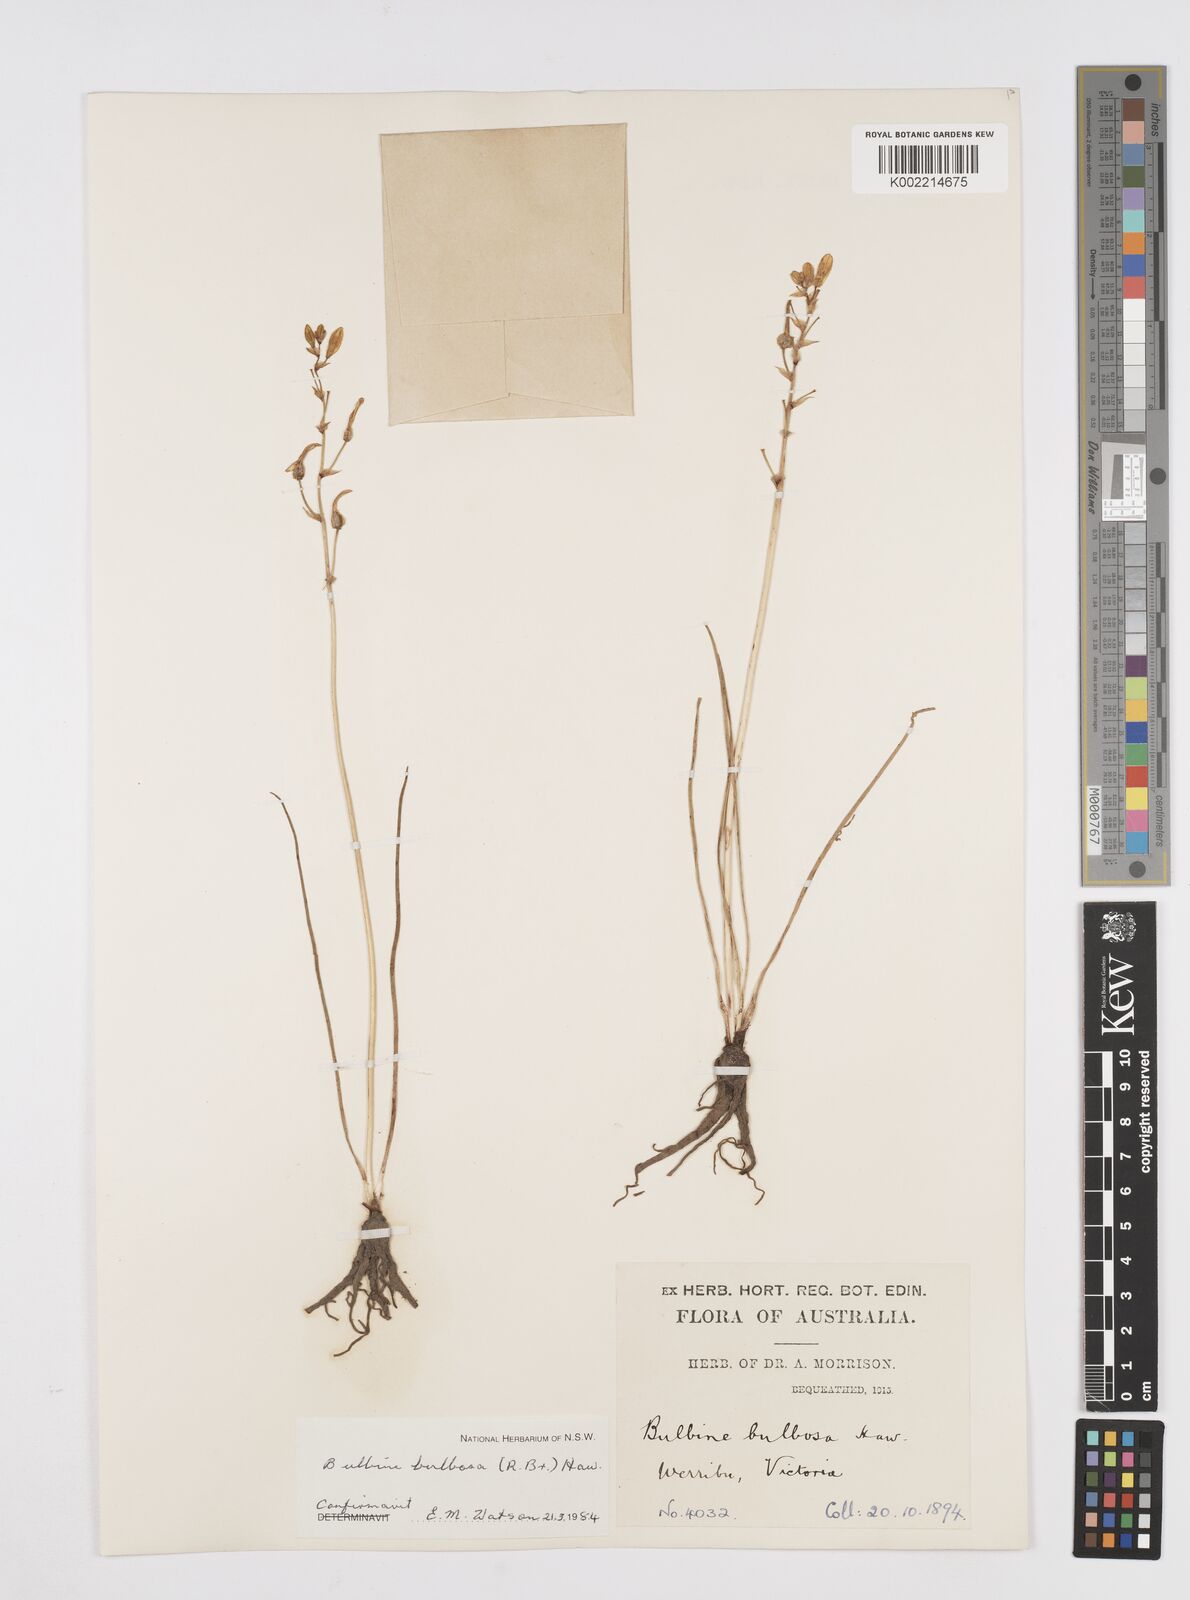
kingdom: Plantae
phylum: Tracheophyta
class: Liliopsida
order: Asparagales
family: Asphodelaceae
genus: Bulbine
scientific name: Bulbine bulbosa
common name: Golden-lily
